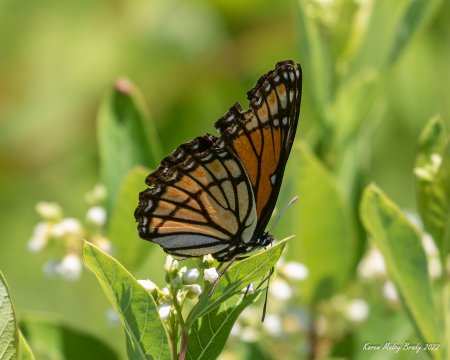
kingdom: Animalia
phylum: Arthropoda
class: Insecta
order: Lepidoptera
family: Nymphalidae
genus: Limenitis
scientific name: Limenitis archippus
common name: Viceroy
